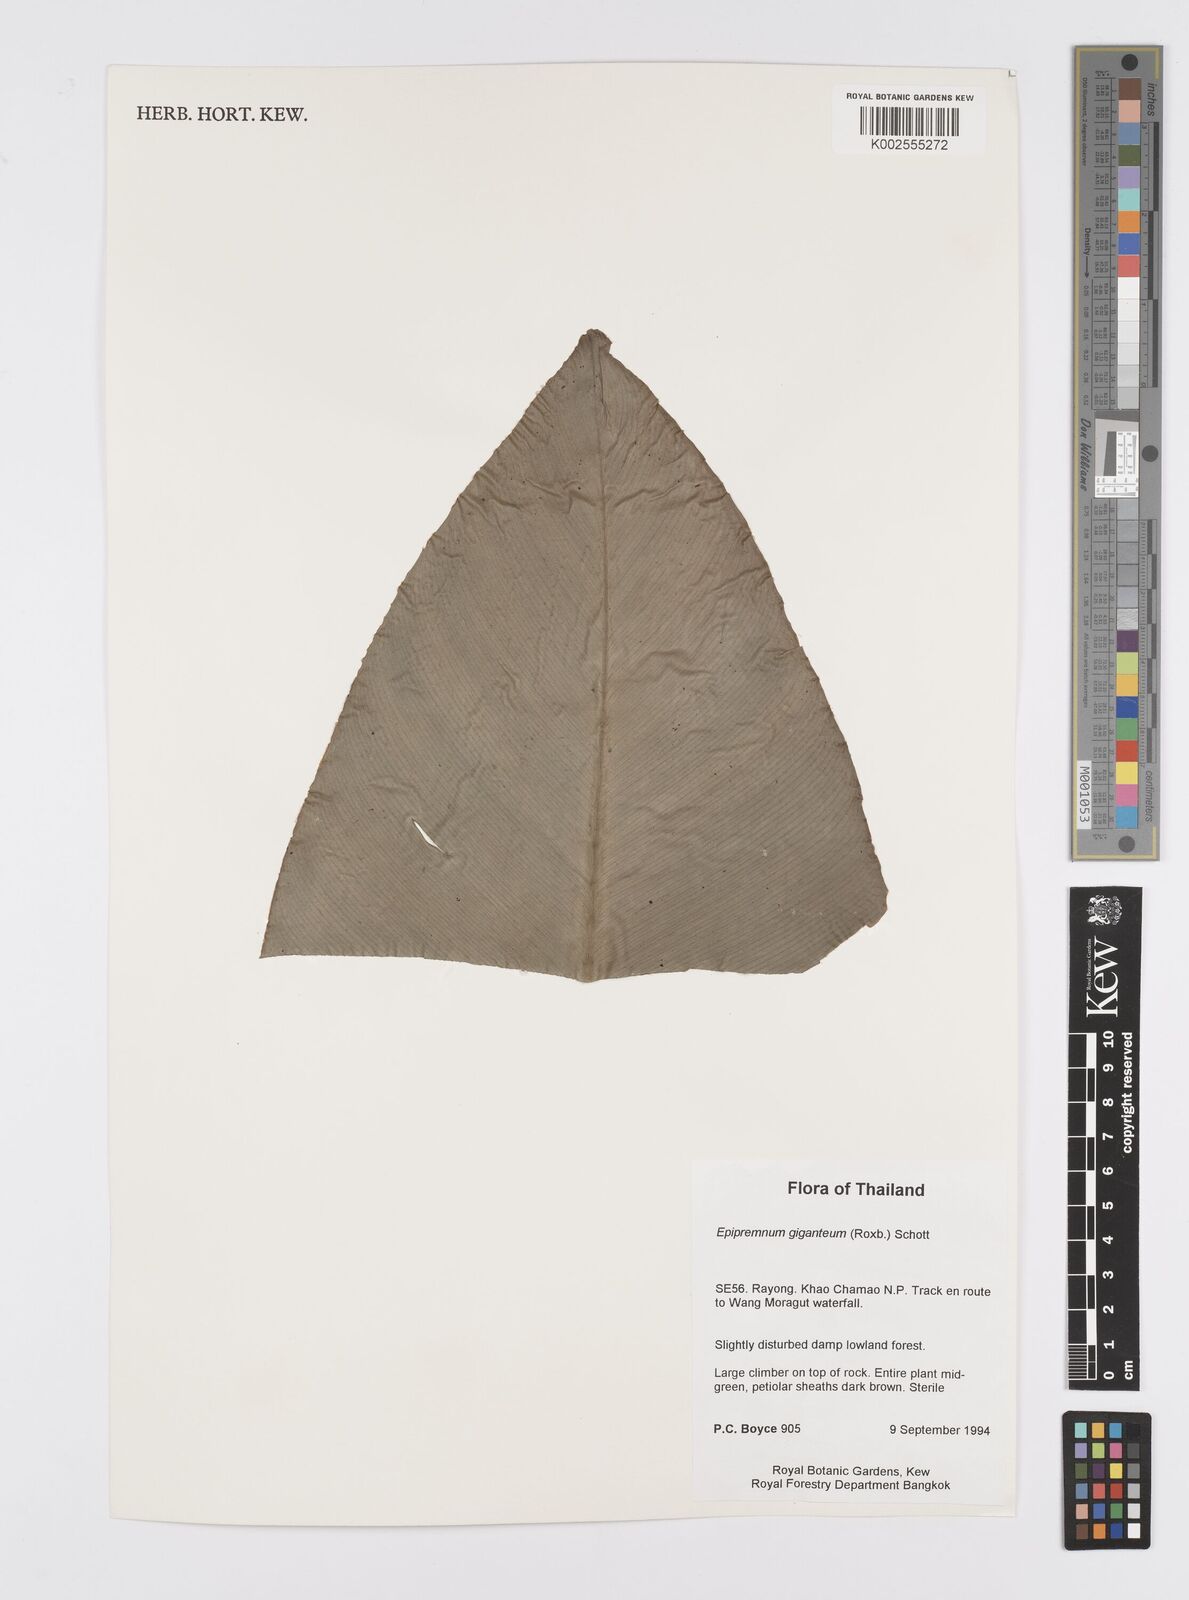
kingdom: Plantae
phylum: Tracheophyta
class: Liliopsida
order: Alismatales
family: Araceae
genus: Epipremnum
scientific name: Epipremnum giganteum
